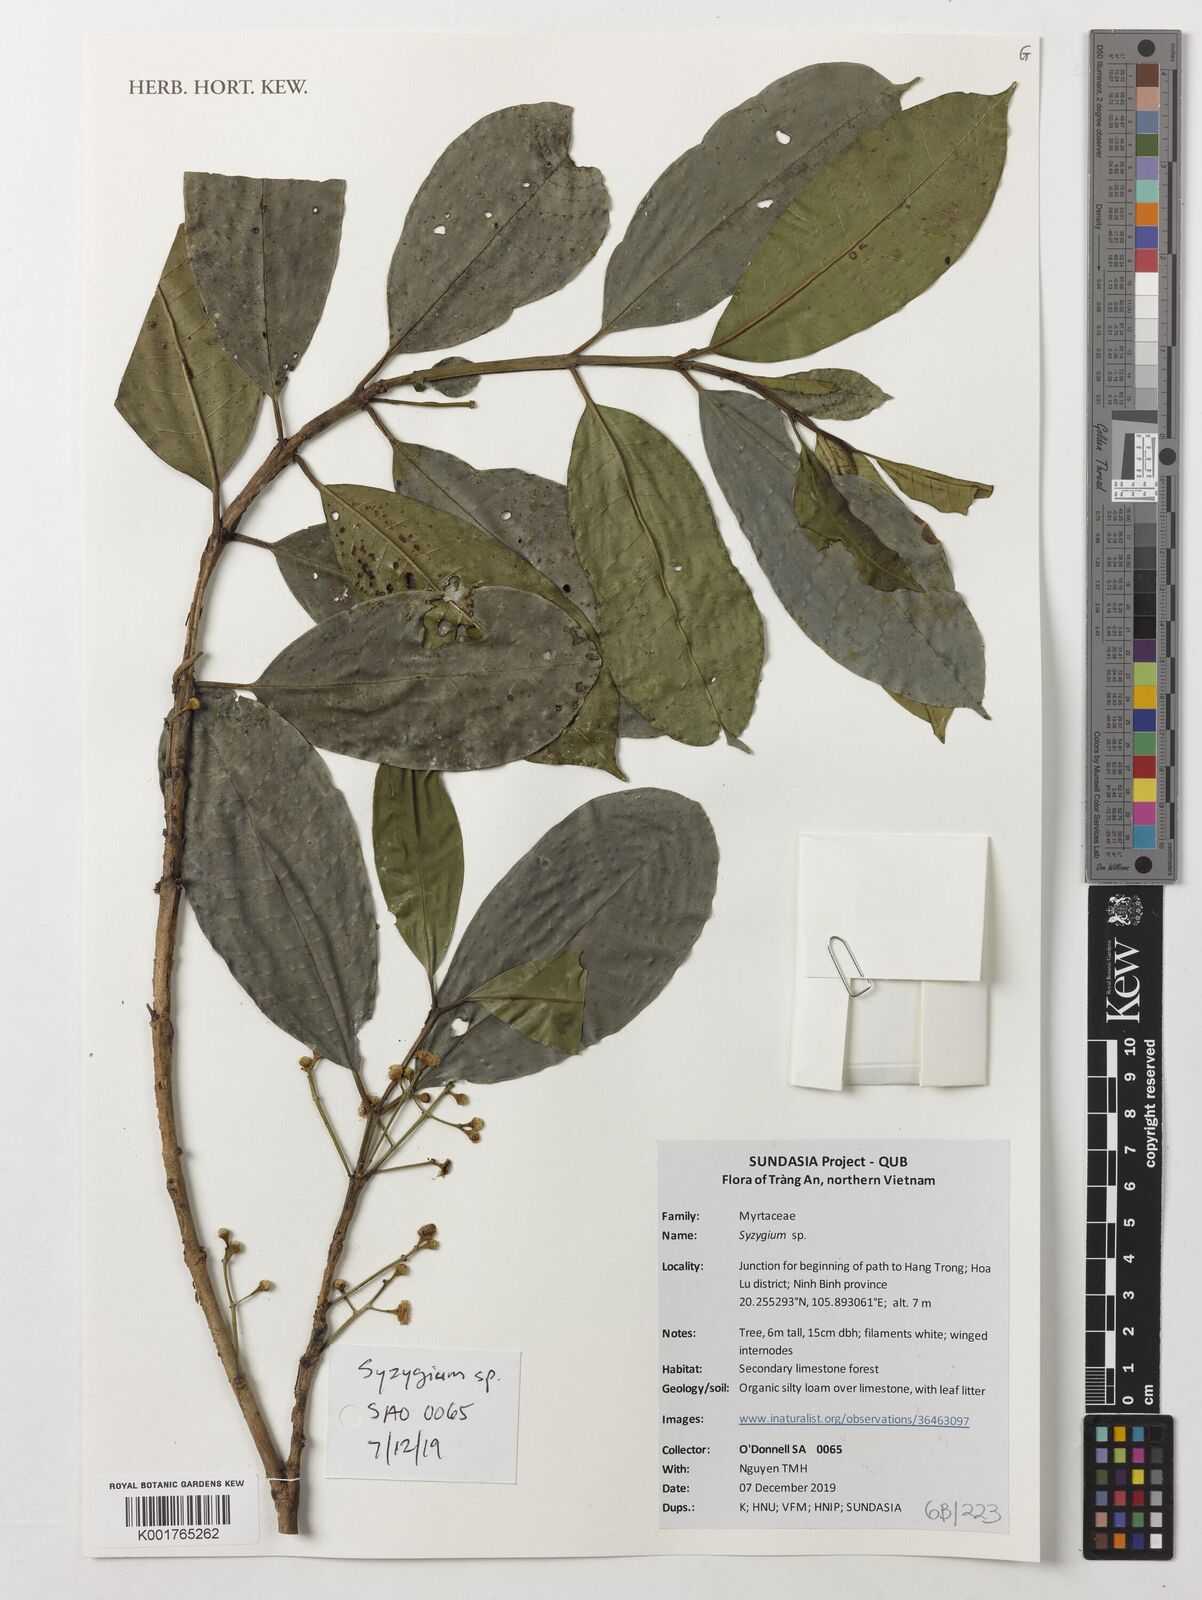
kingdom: Plantae
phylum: Tracheophyta
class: Magnoliopsida
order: Myrtales
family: Myrtaceae
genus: Syzygium
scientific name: Syzygium
